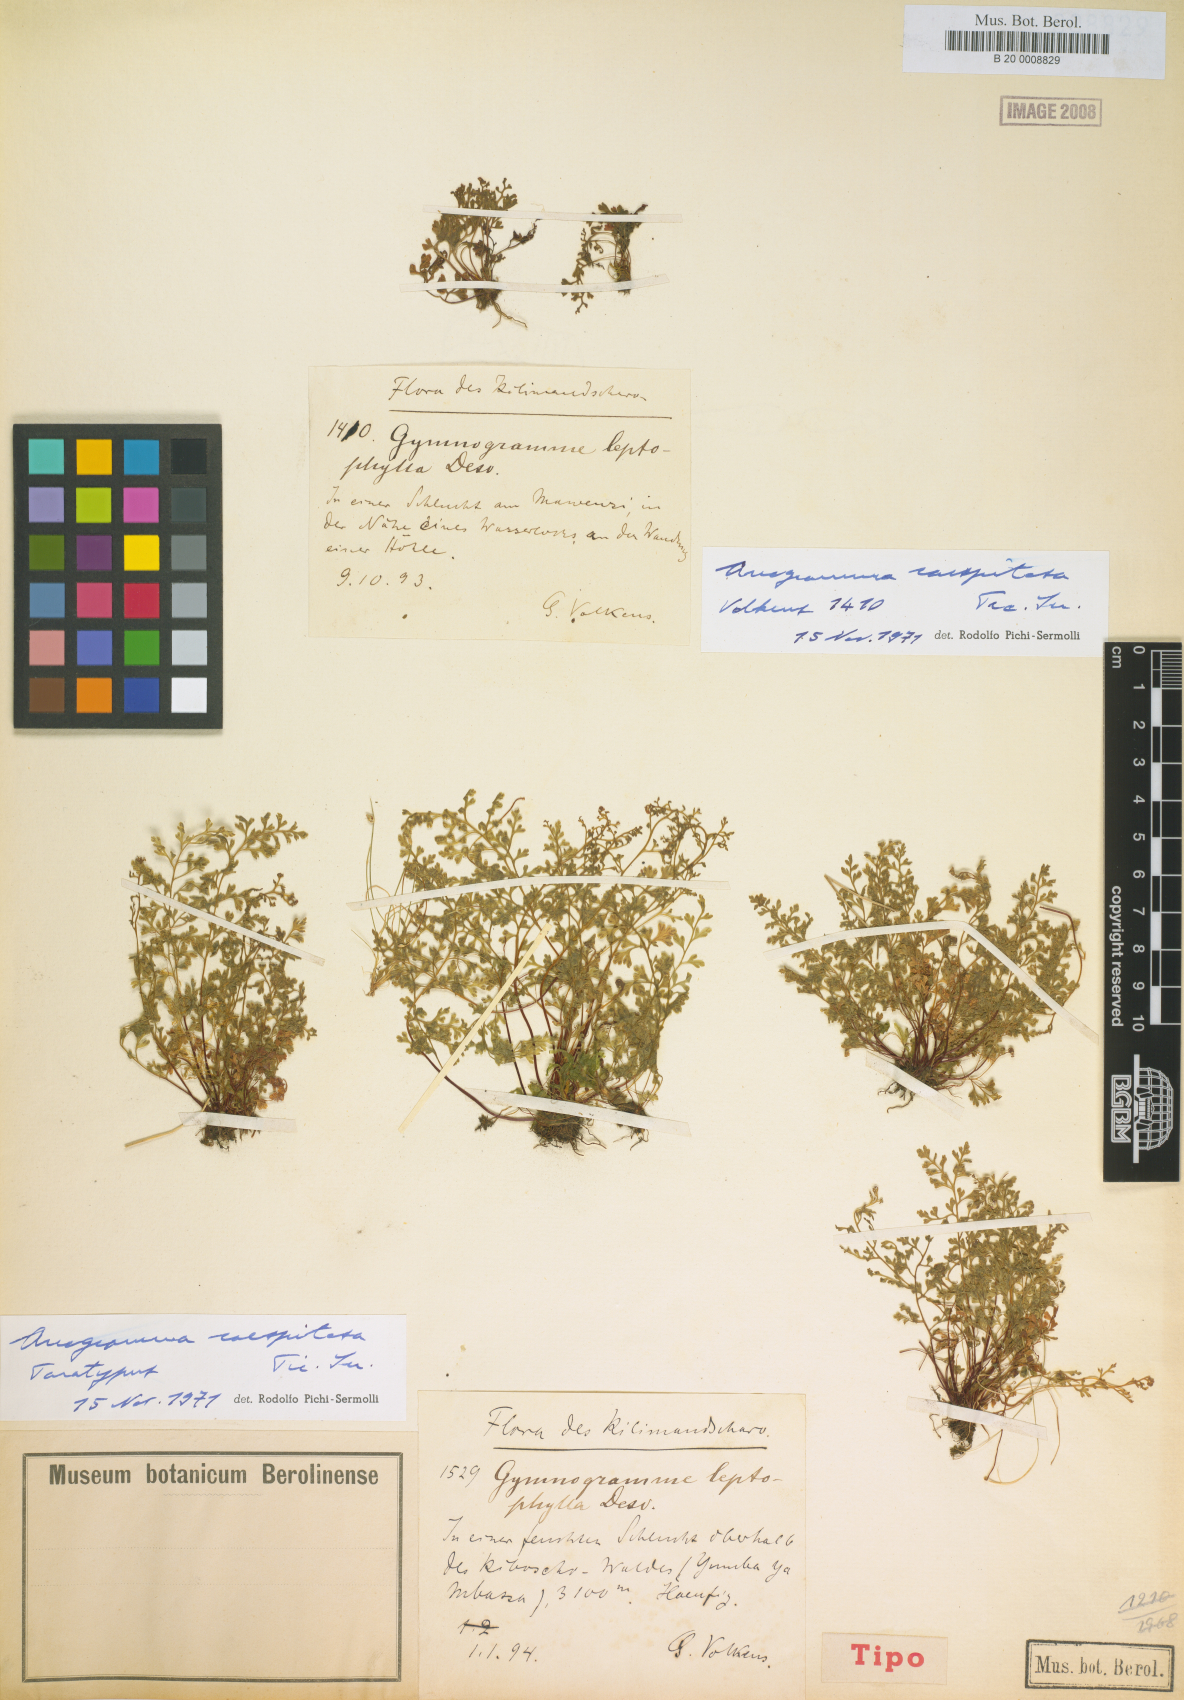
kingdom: Plantae
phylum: Tracheophyta
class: Polypodiopsida
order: Polypodiales
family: Pteridaceae
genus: Anogramma
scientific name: Anogramma leptophylla
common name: Jersey fern
